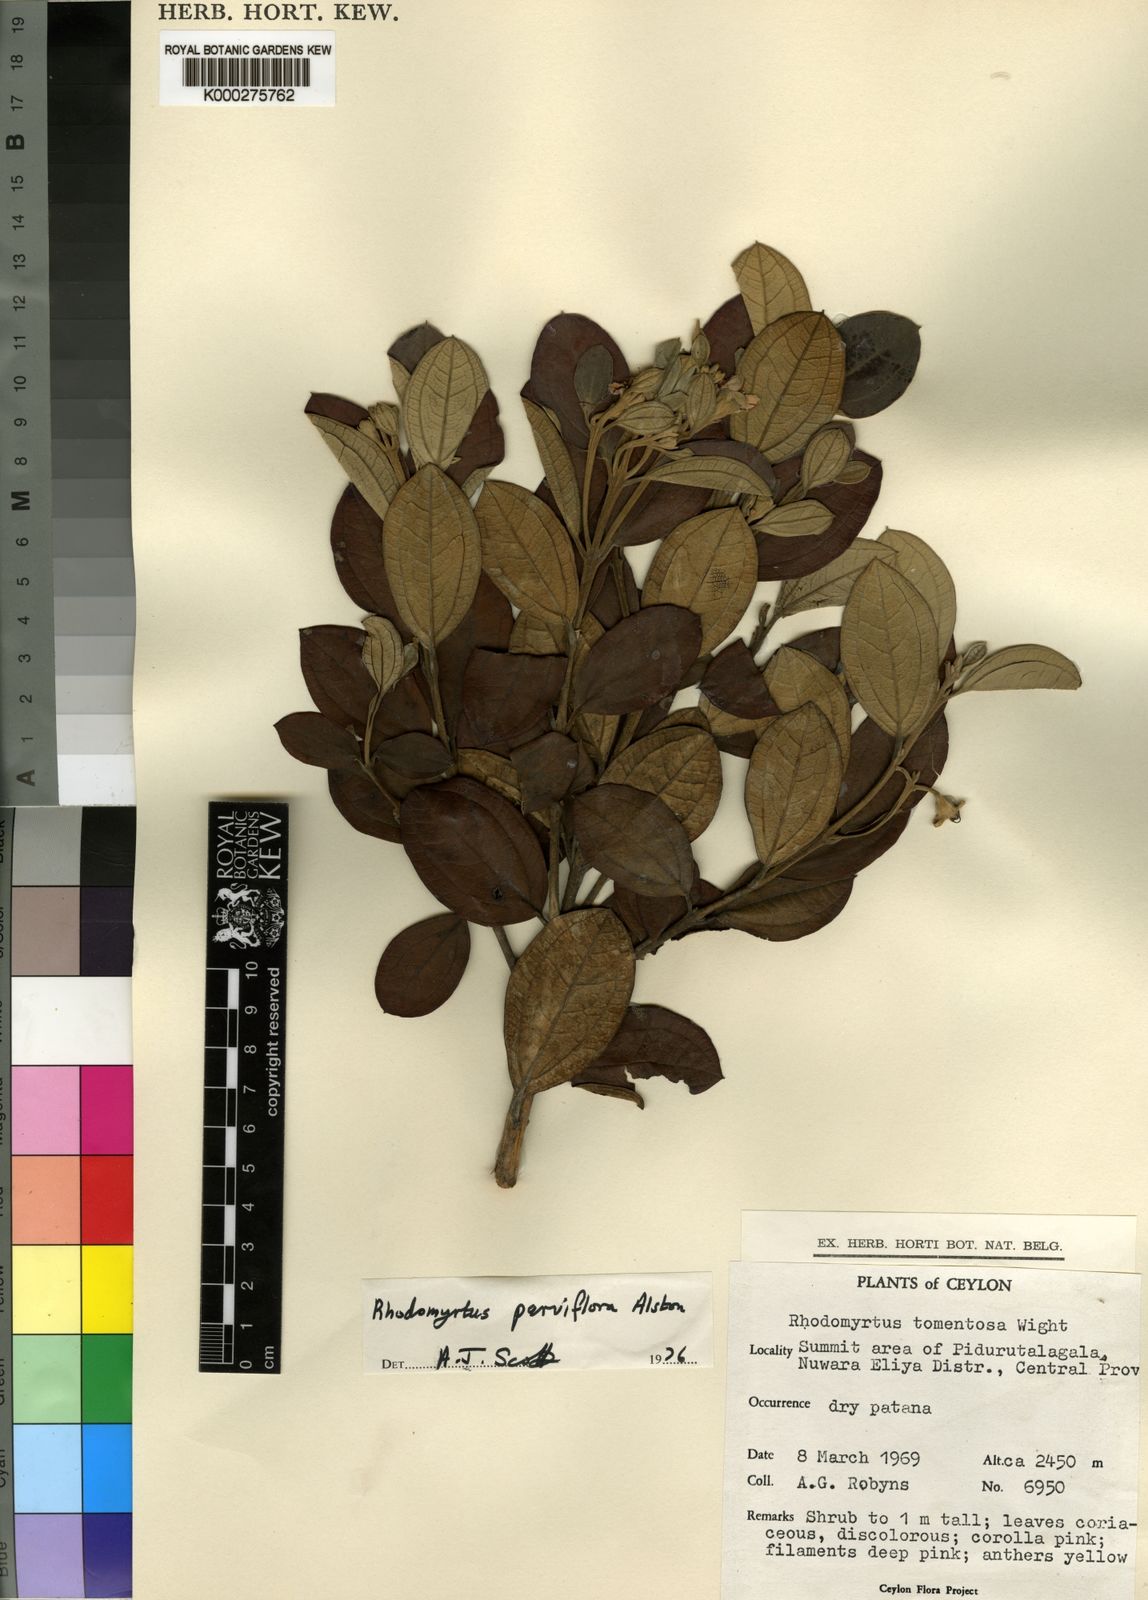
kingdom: Plantae
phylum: Tracheophyta
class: Magnoliopsida
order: Myrtales
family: Myrtaceae
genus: Rhodomyrtus
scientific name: Rhodomyrtus tomentosa
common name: Rose myrtle
